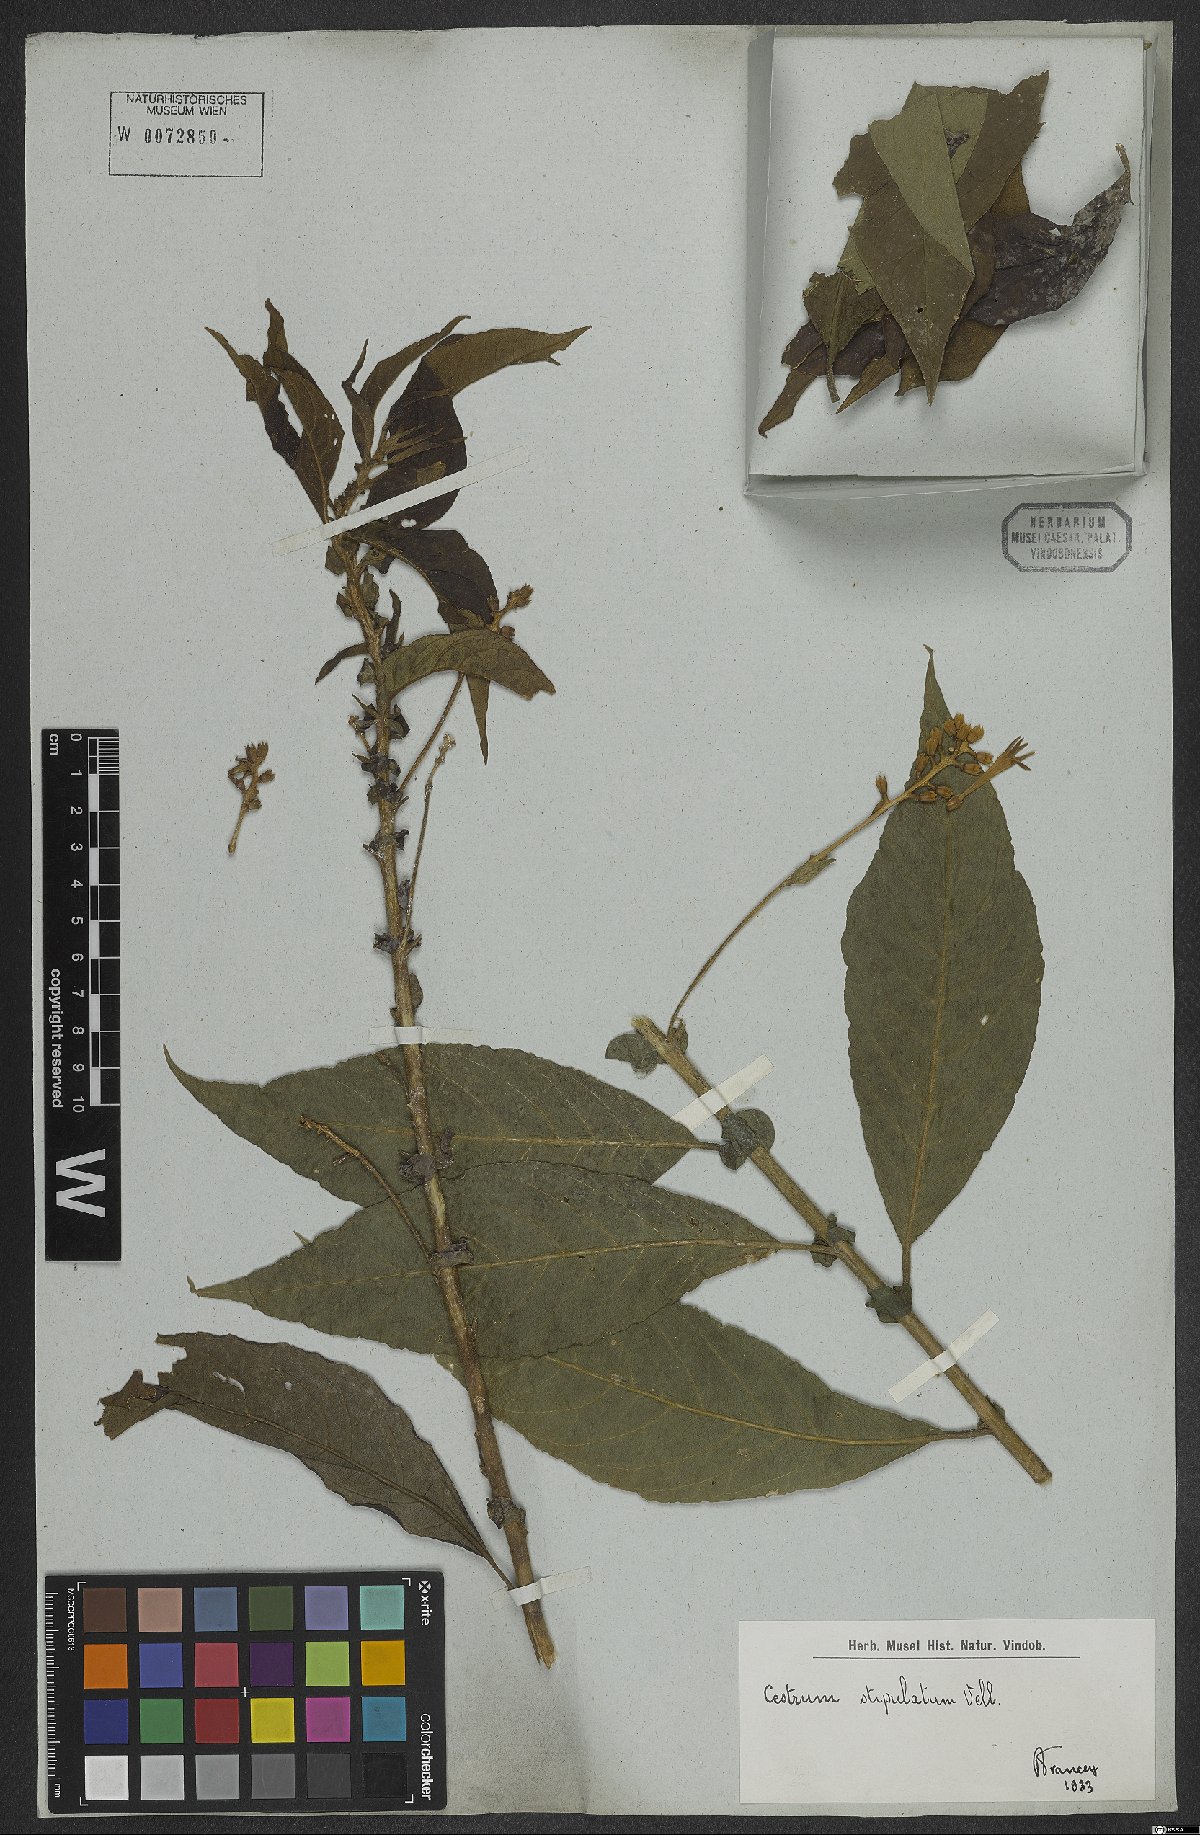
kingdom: Plantae
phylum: Tracheophyta
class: Magnoliopsida
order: Solanales
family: Solanaceae
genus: Cestrum
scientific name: Cestrum bracteatum
